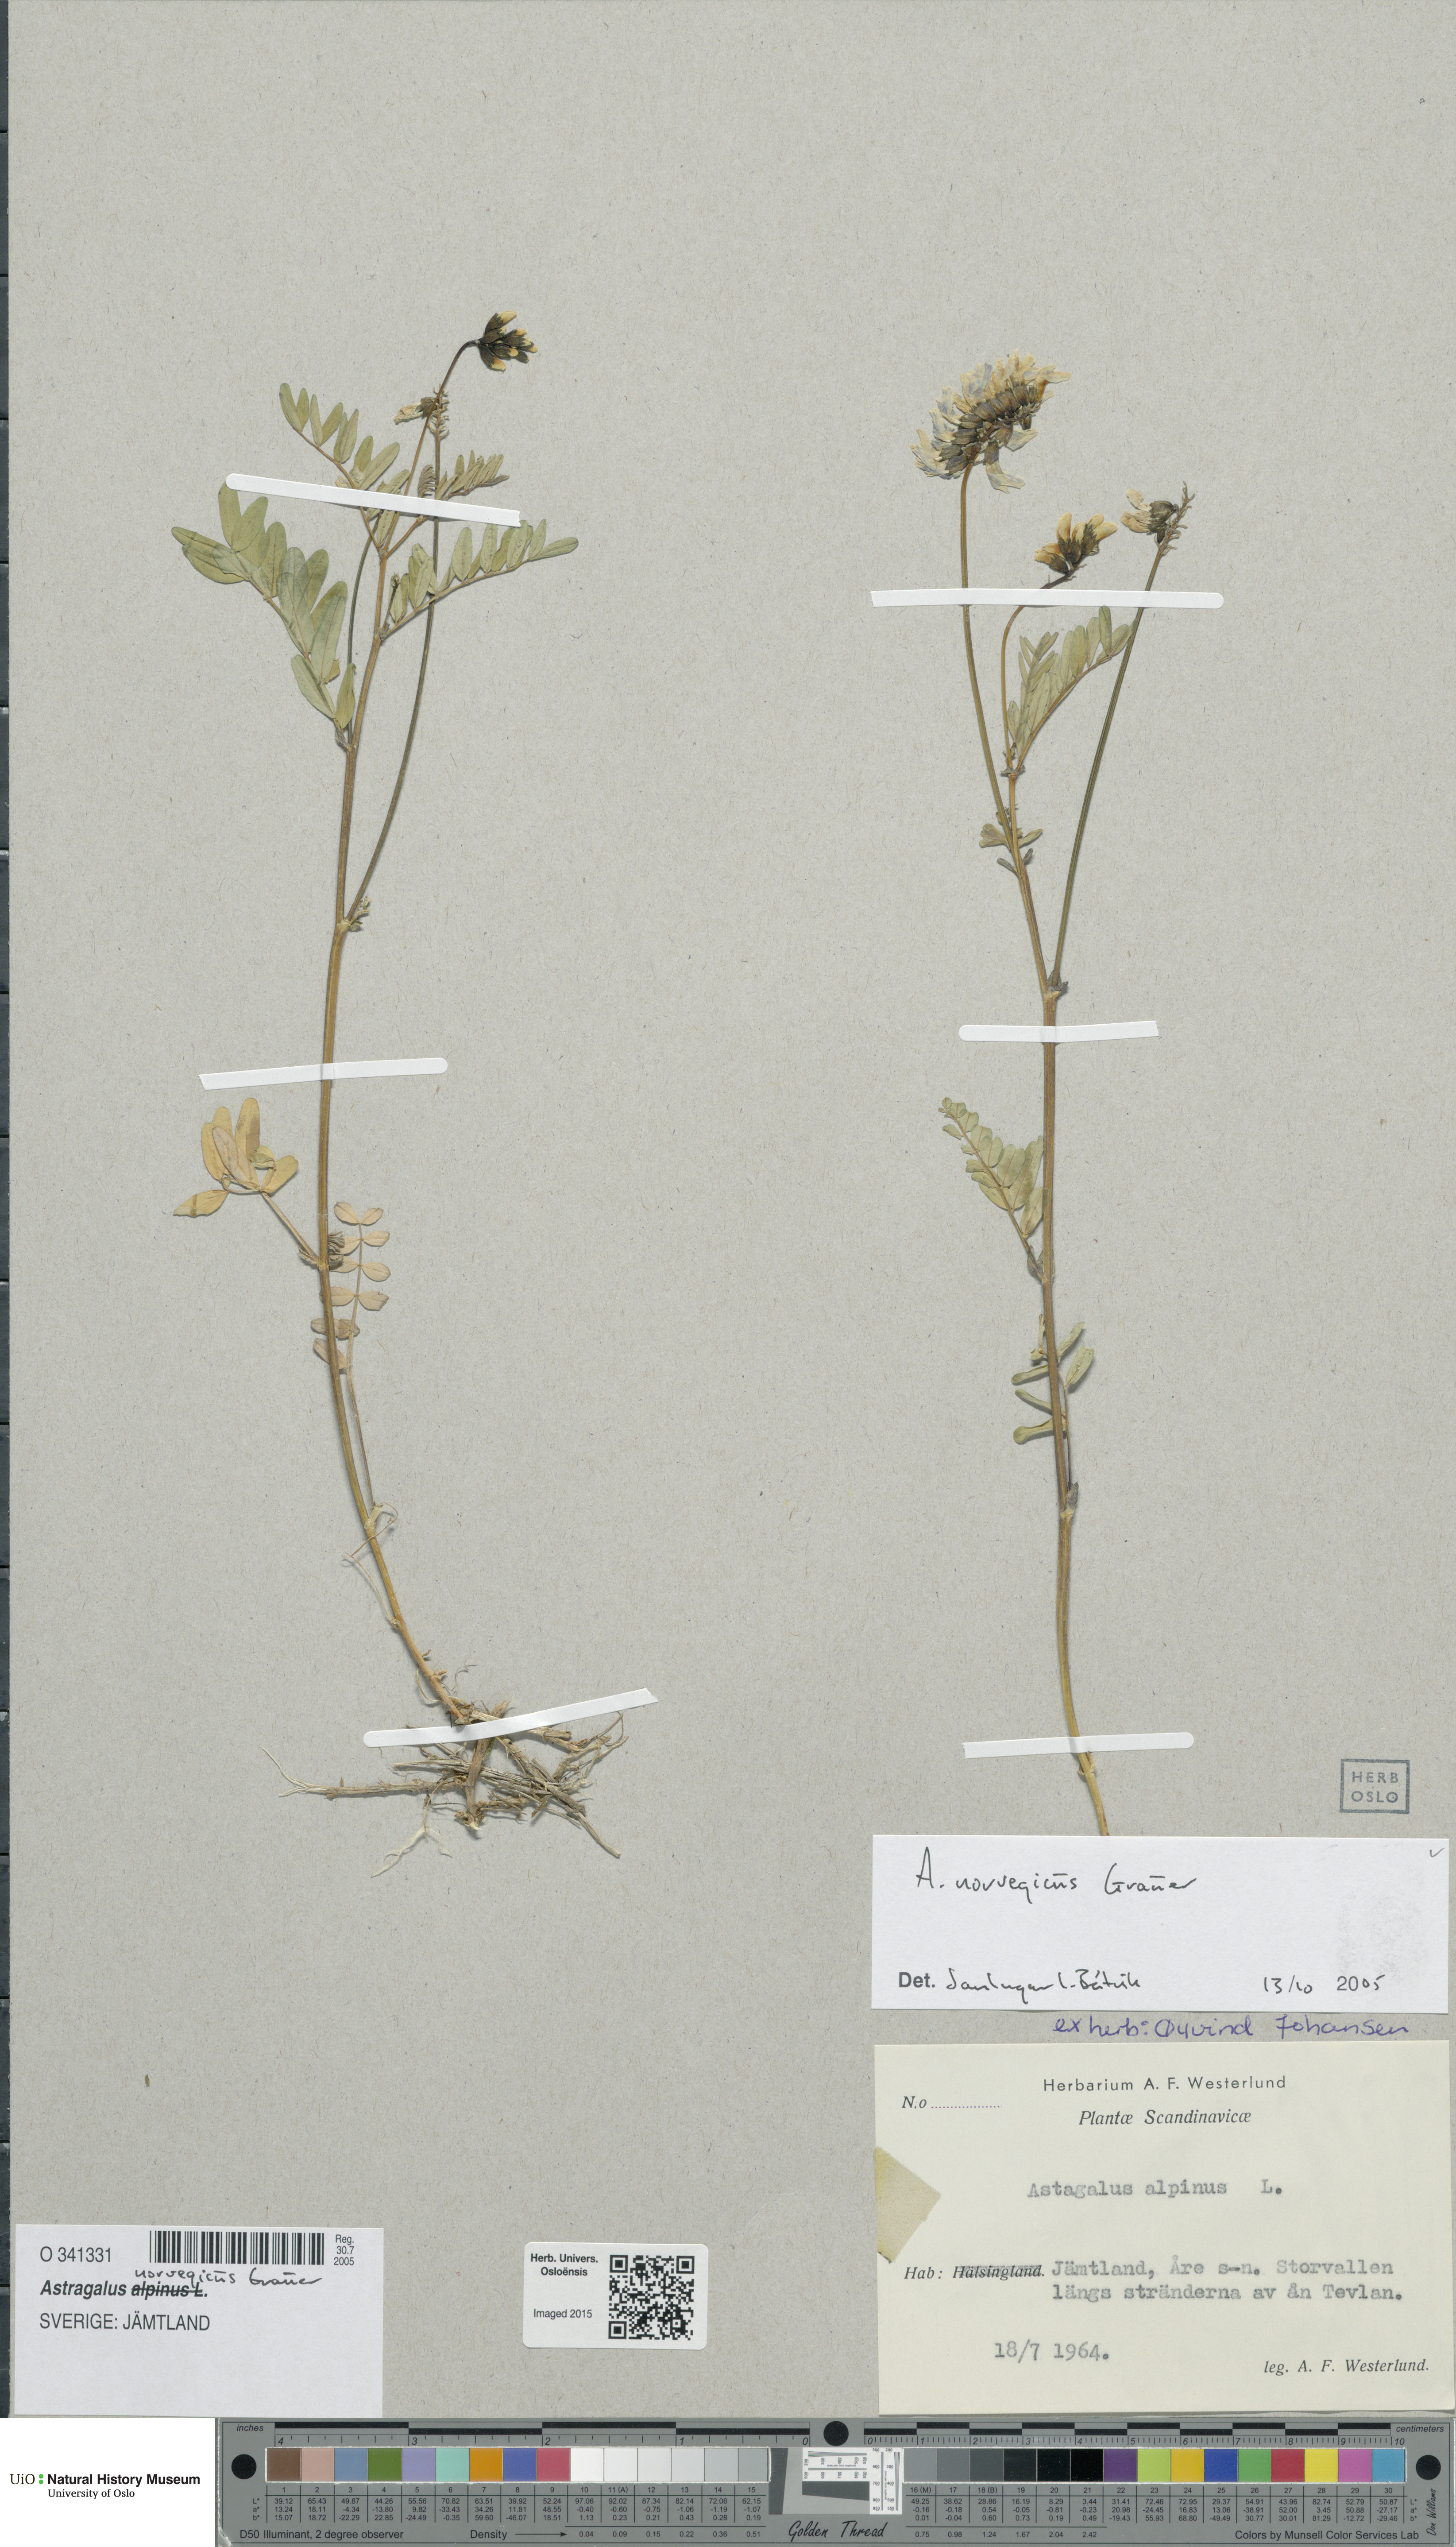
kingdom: Plantae
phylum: Tracheophyta
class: Magnoliopsida
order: Fabales
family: Fabaceae
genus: Astragalus
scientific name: Astragalus norvegicus
